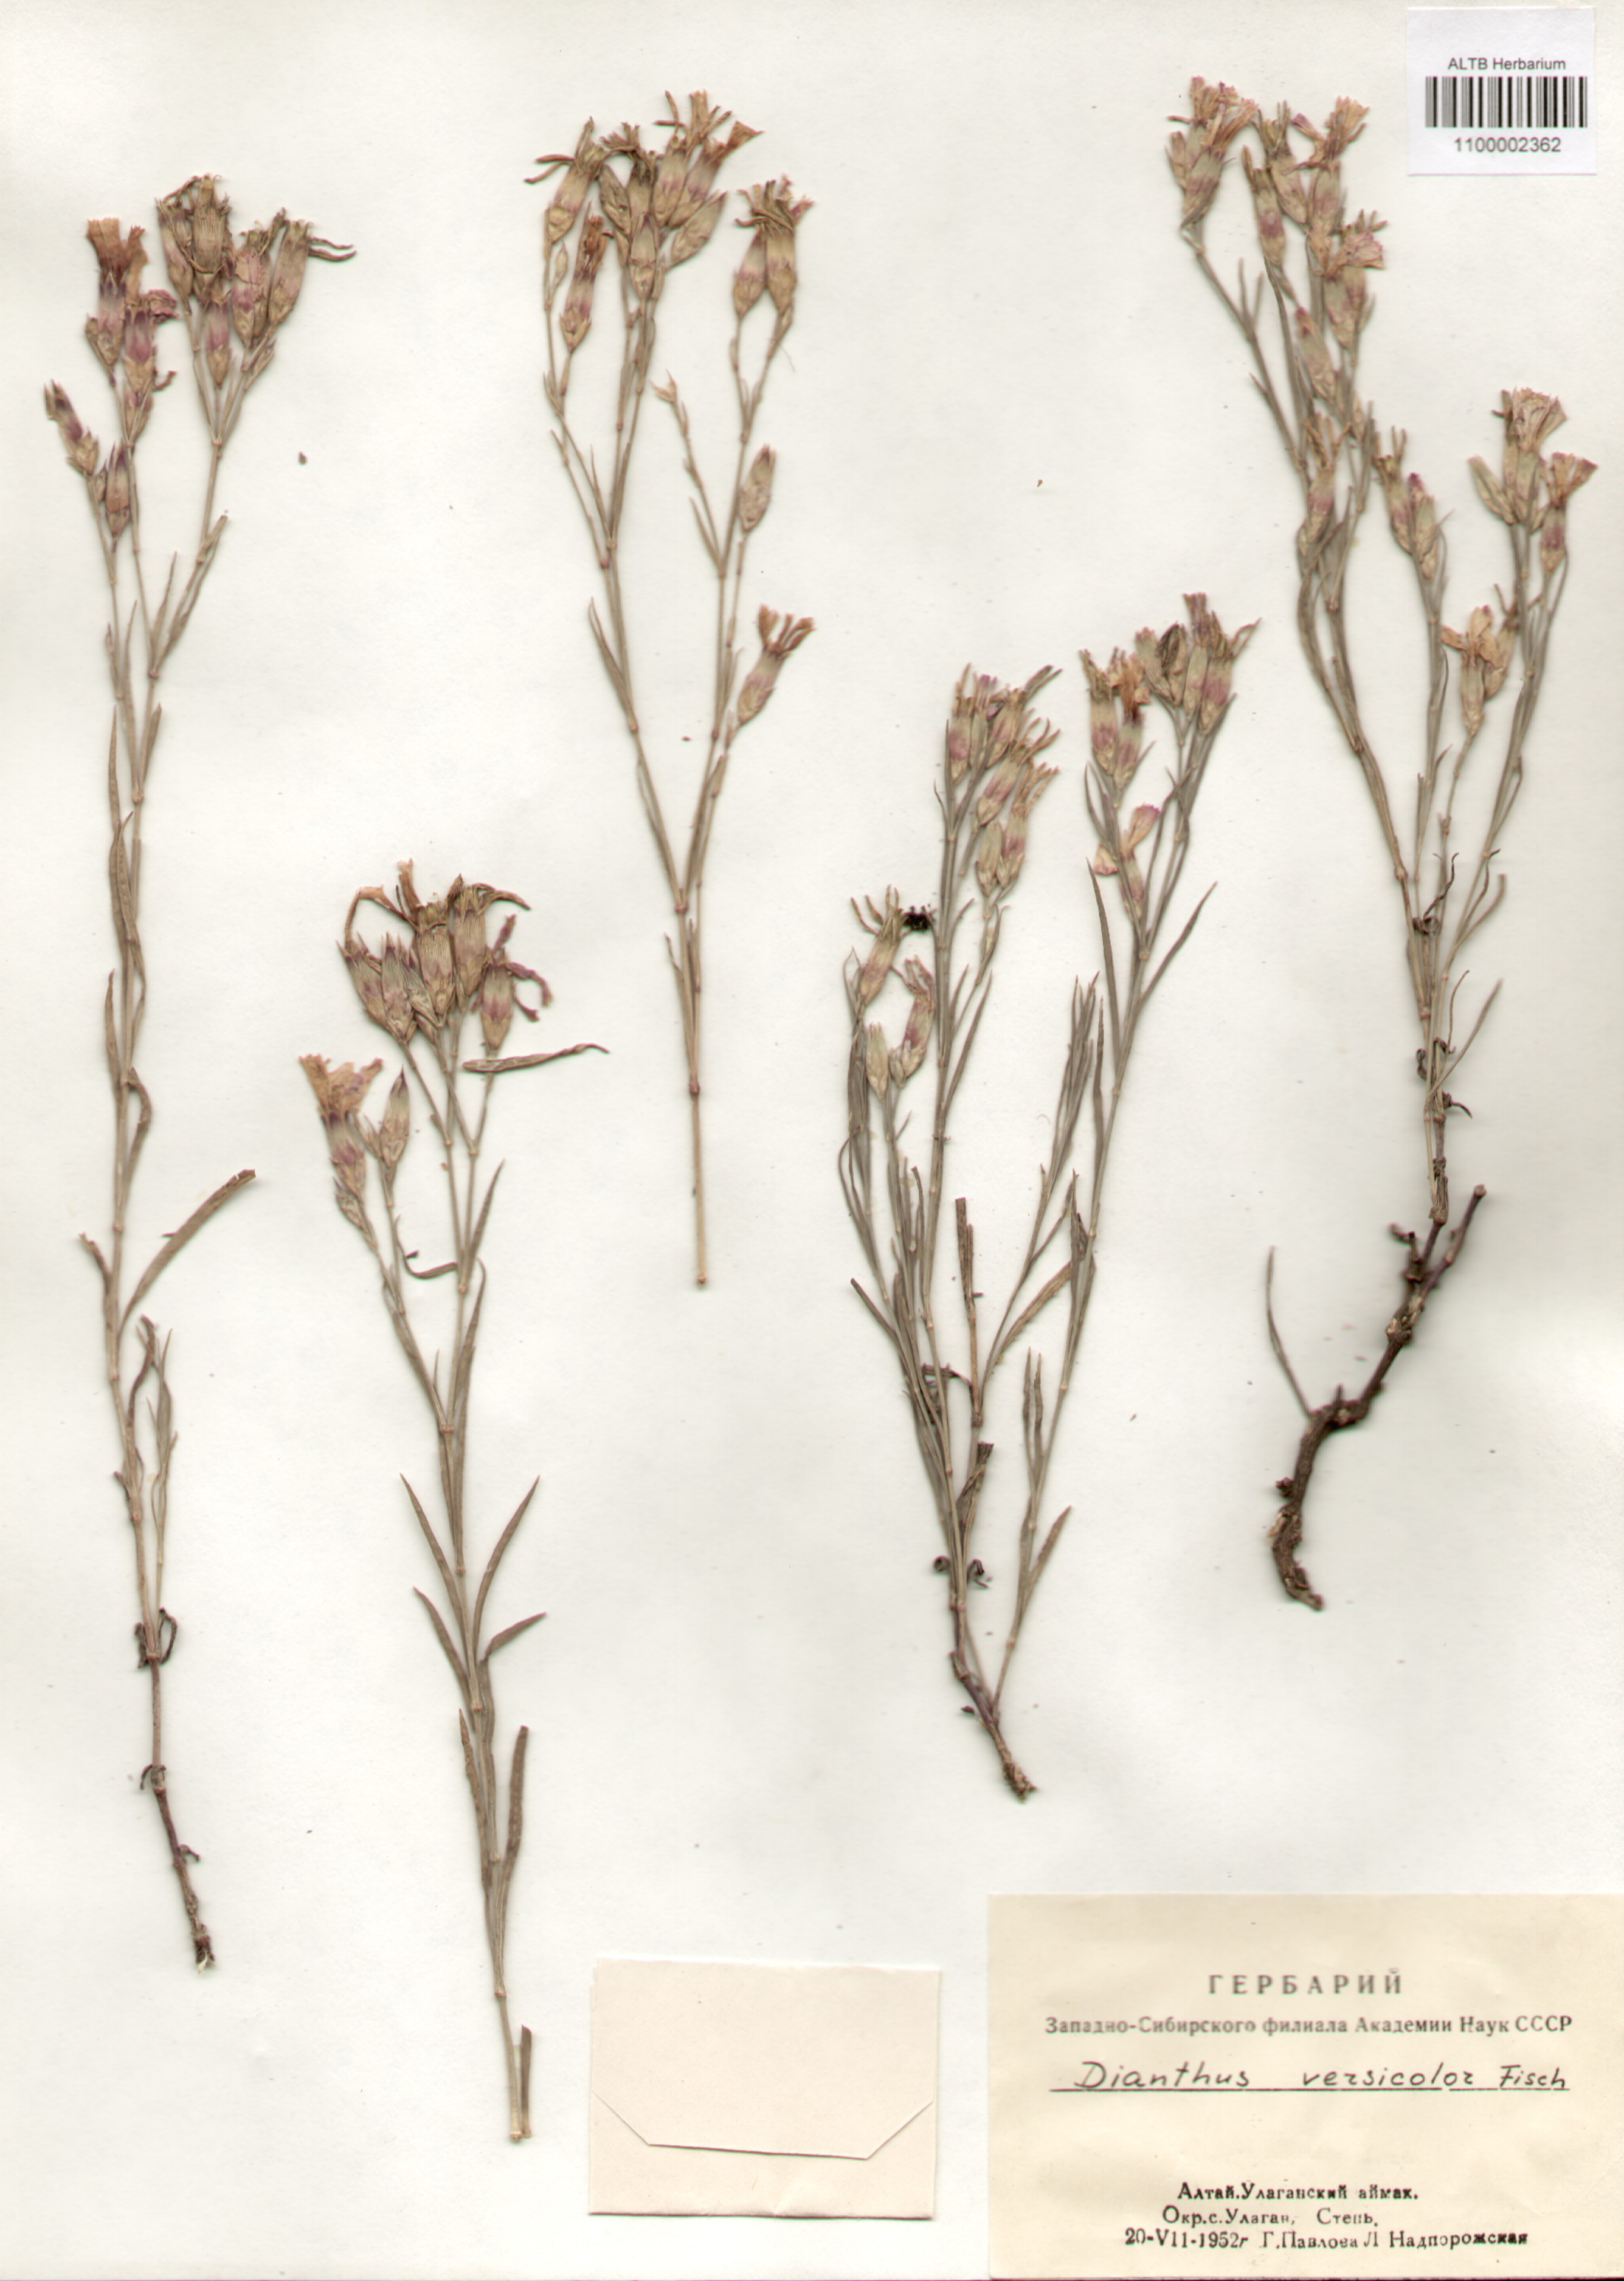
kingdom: Plantae
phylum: Tracheophyta
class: Magnoliopsida
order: Caryophyllales
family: Caryophyllaceae
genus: Dianthus
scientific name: Dianthus chinensis
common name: Rainbow pink
